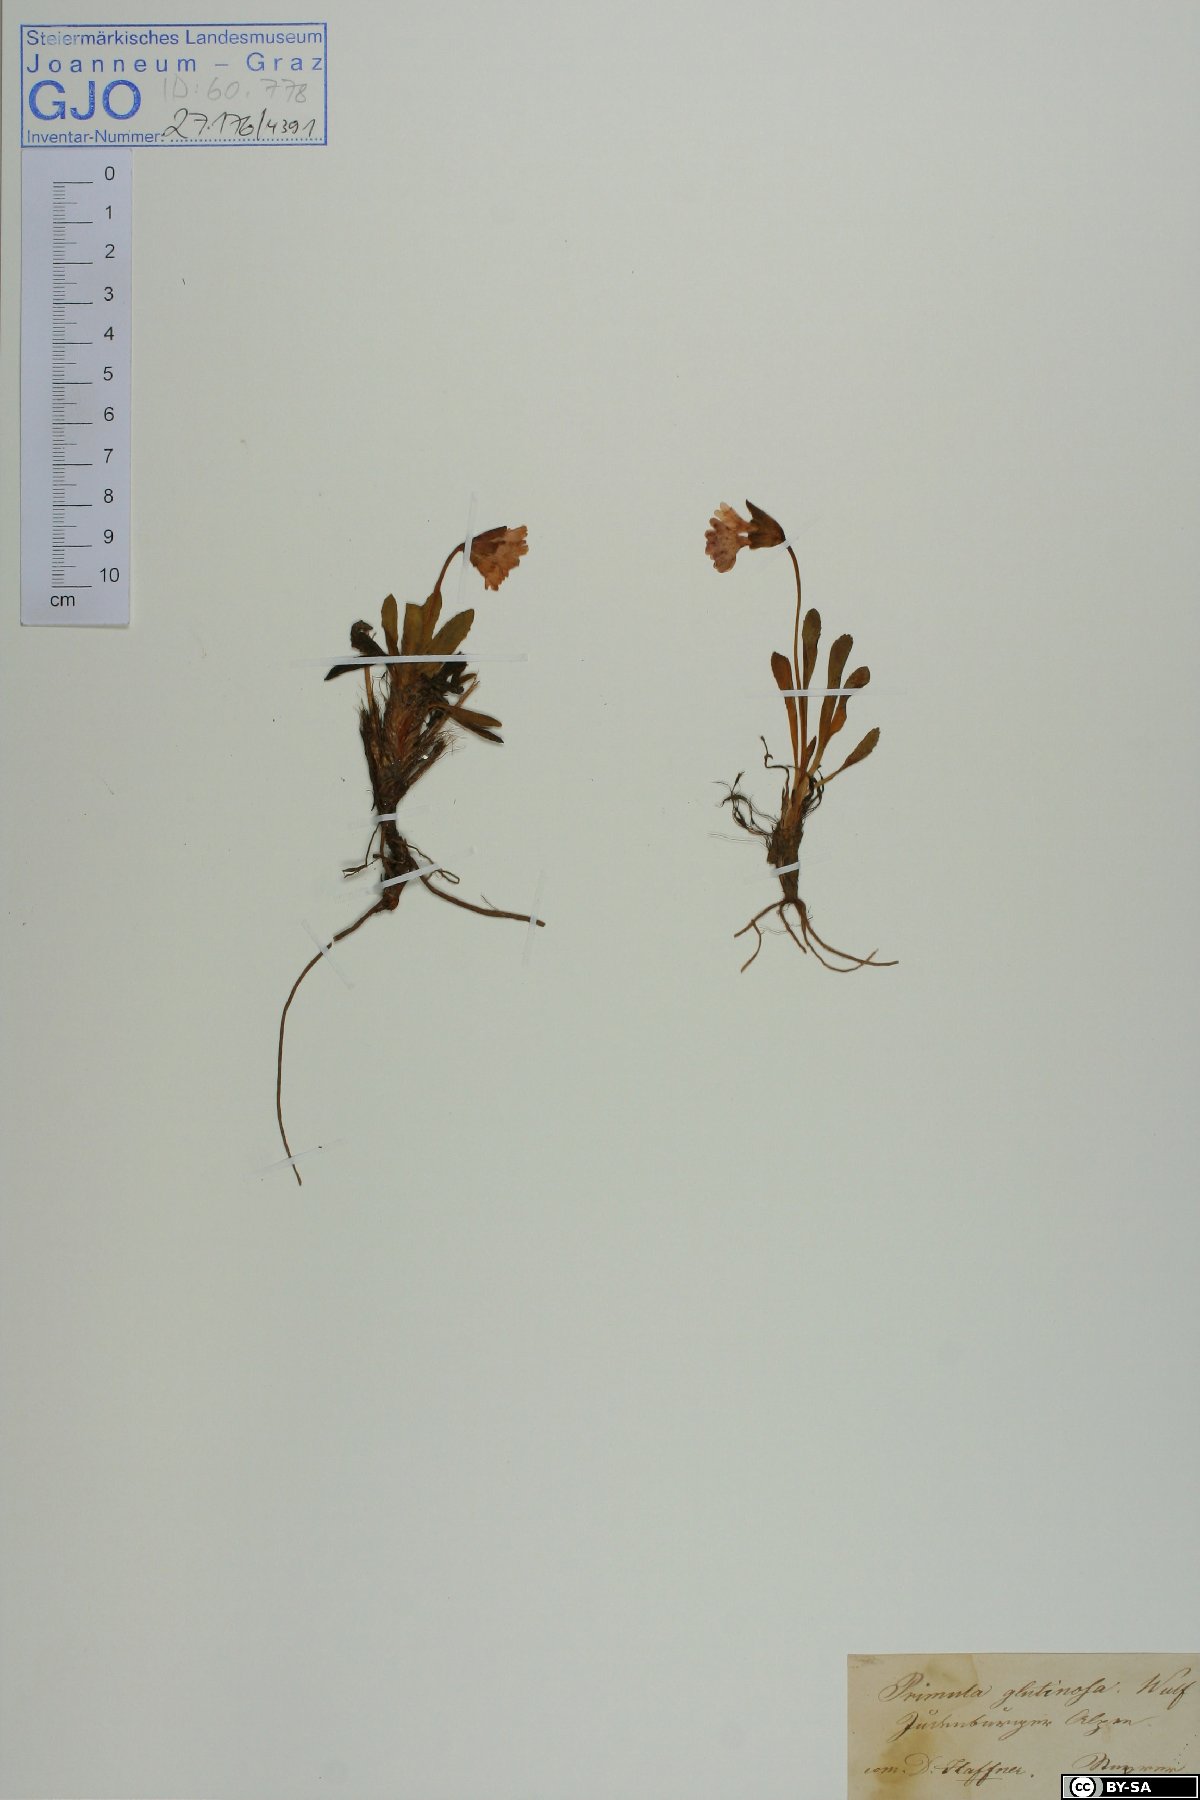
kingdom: Plantae
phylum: Tracheophyta
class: Magnoliopsida
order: Ericales
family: Primulaceae
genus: Primula
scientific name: Primula glutinosa
